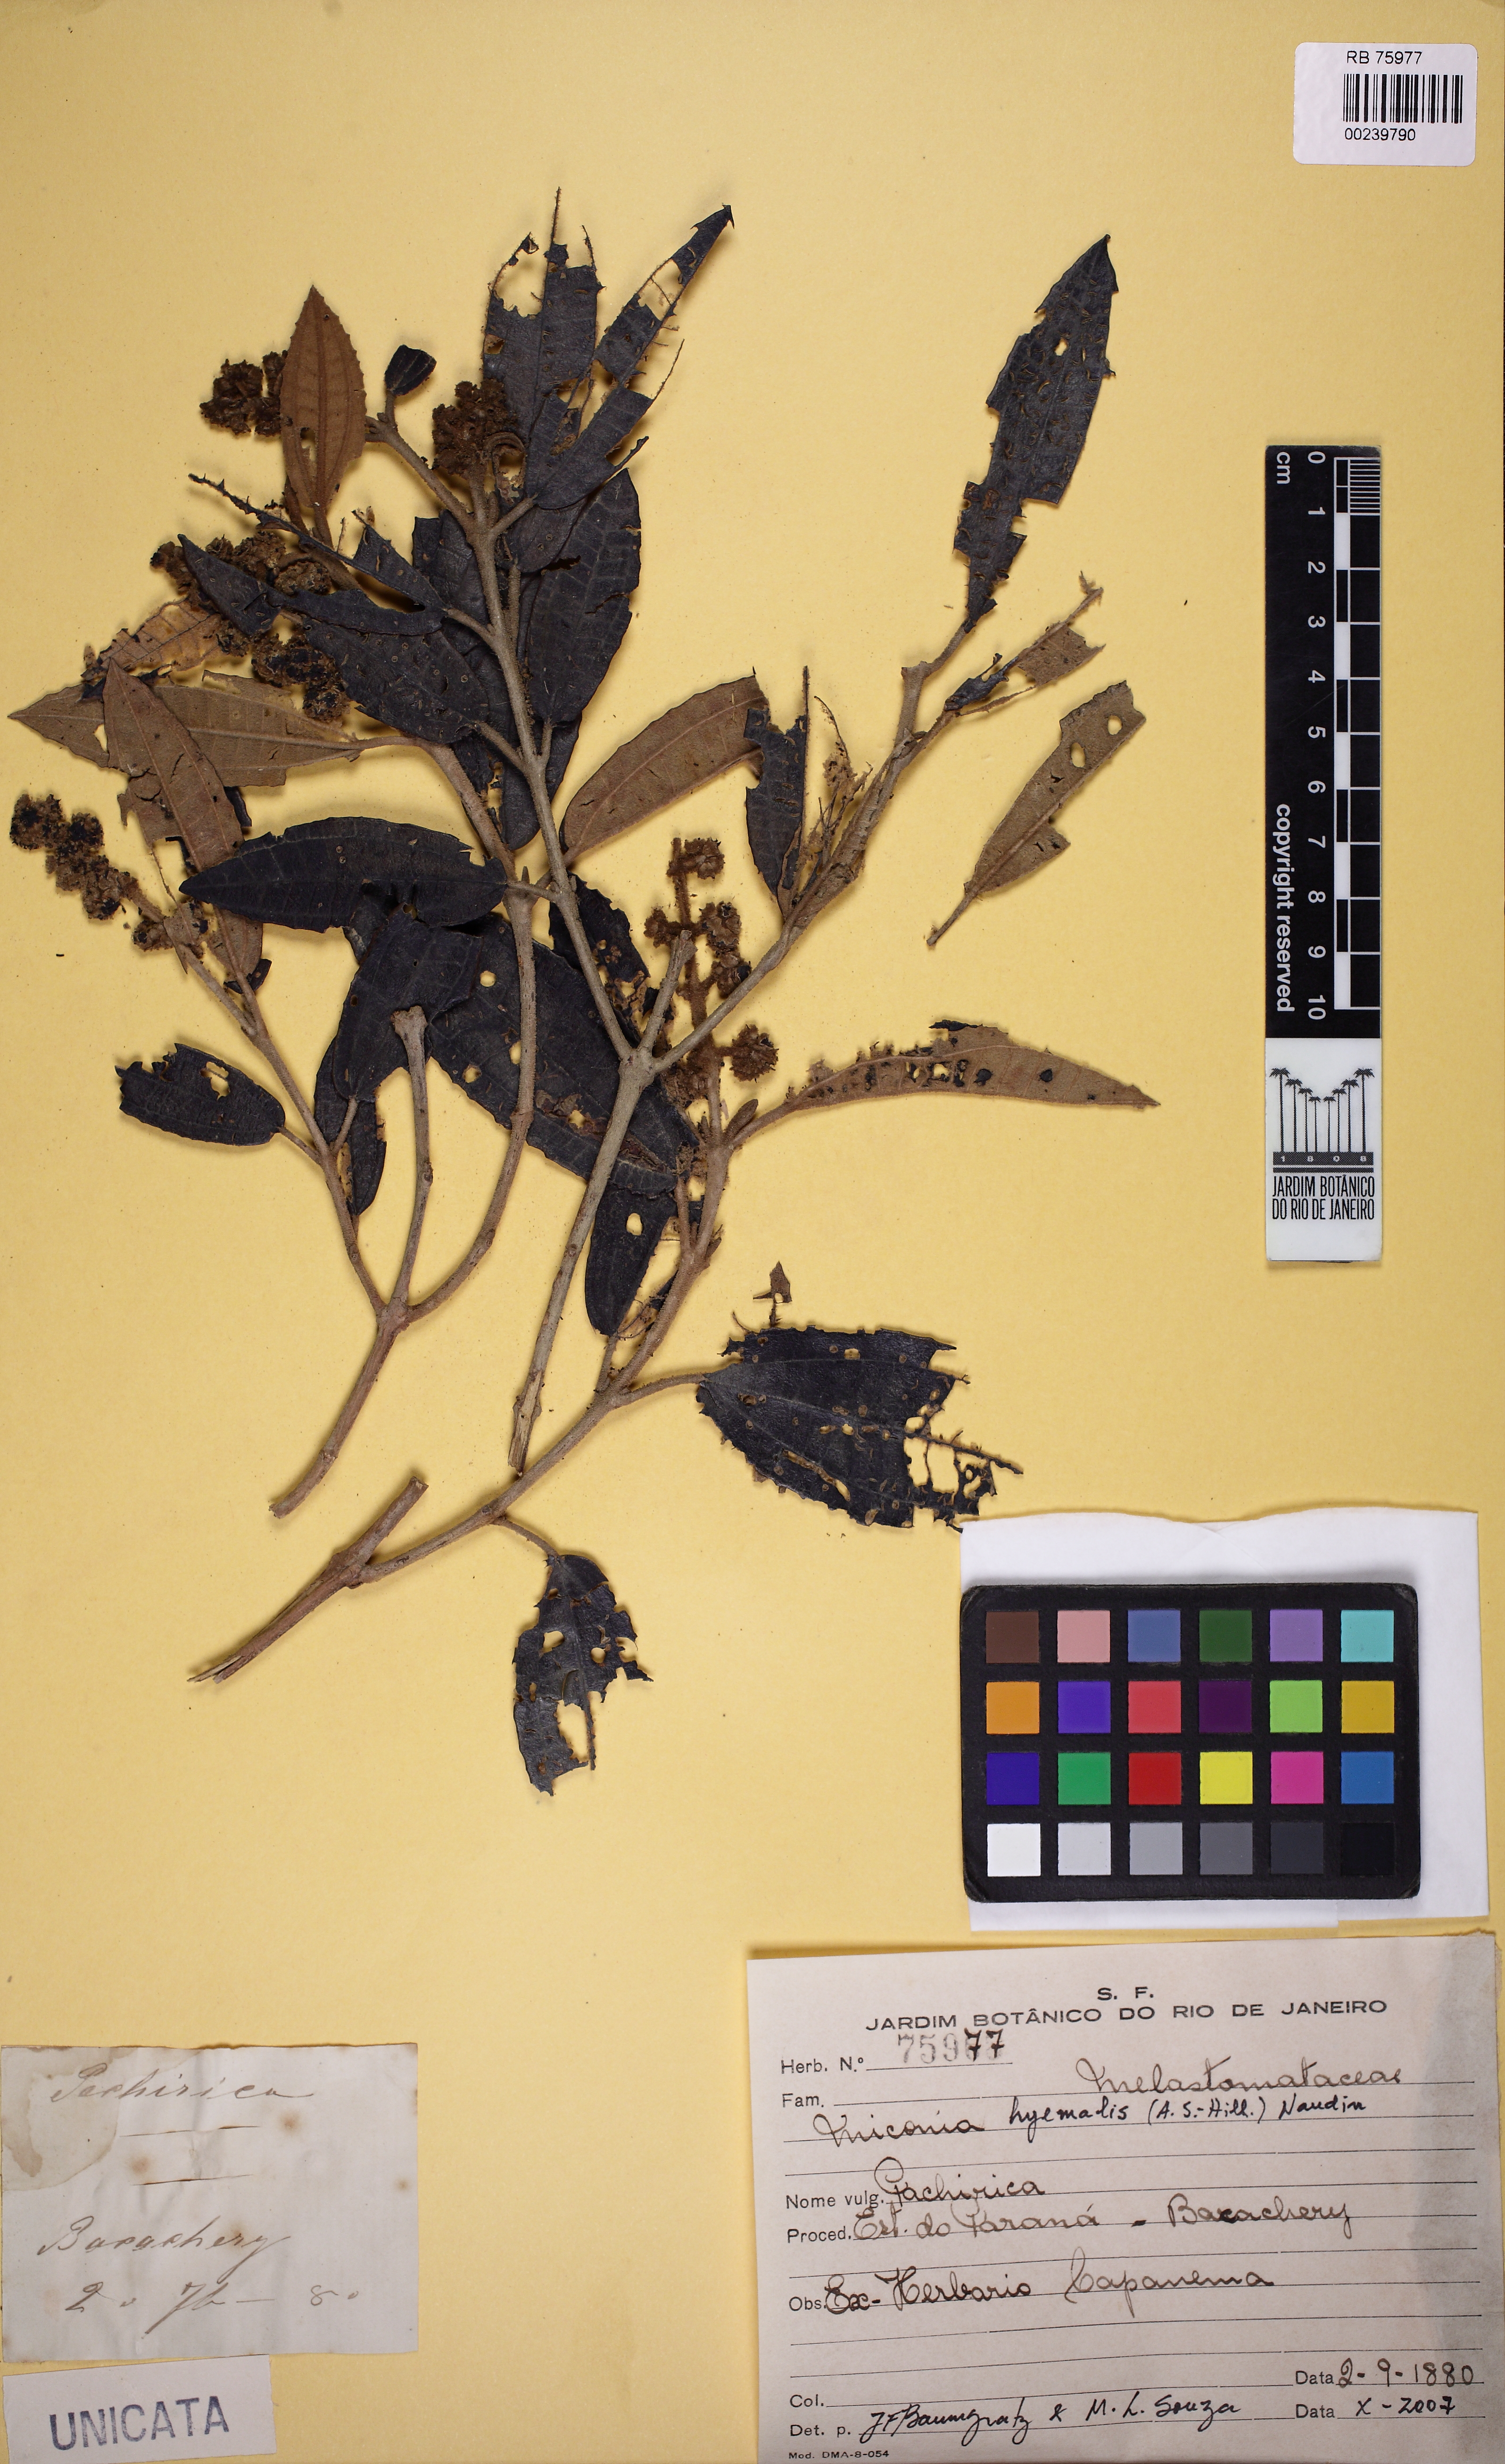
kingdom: Plantae
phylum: Tracheophyta
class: Magnoliopsida
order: Myrtales
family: Melastomataceae
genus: Miconia
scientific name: Miconia hyemalis
